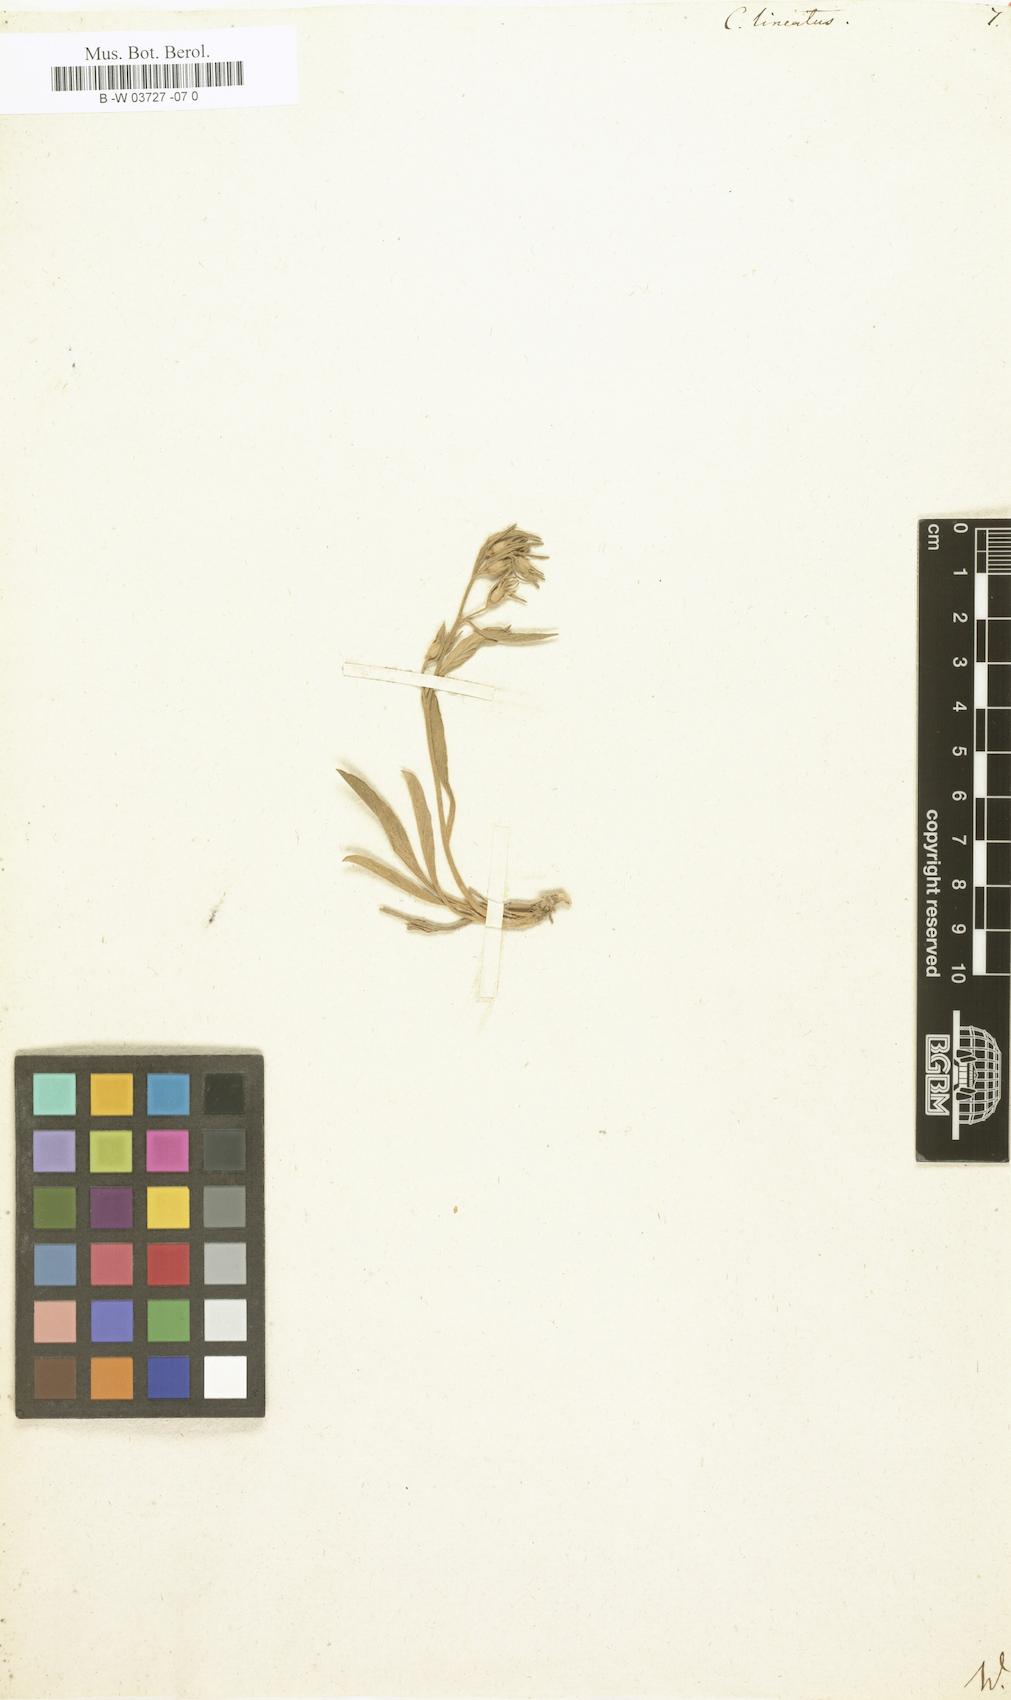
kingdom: Plantae
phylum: Tracheophyta
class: Magnoliopsida
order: Solanales
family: Convolvulaceae
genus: Convolvulus
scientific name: Convolvulus lineatus
